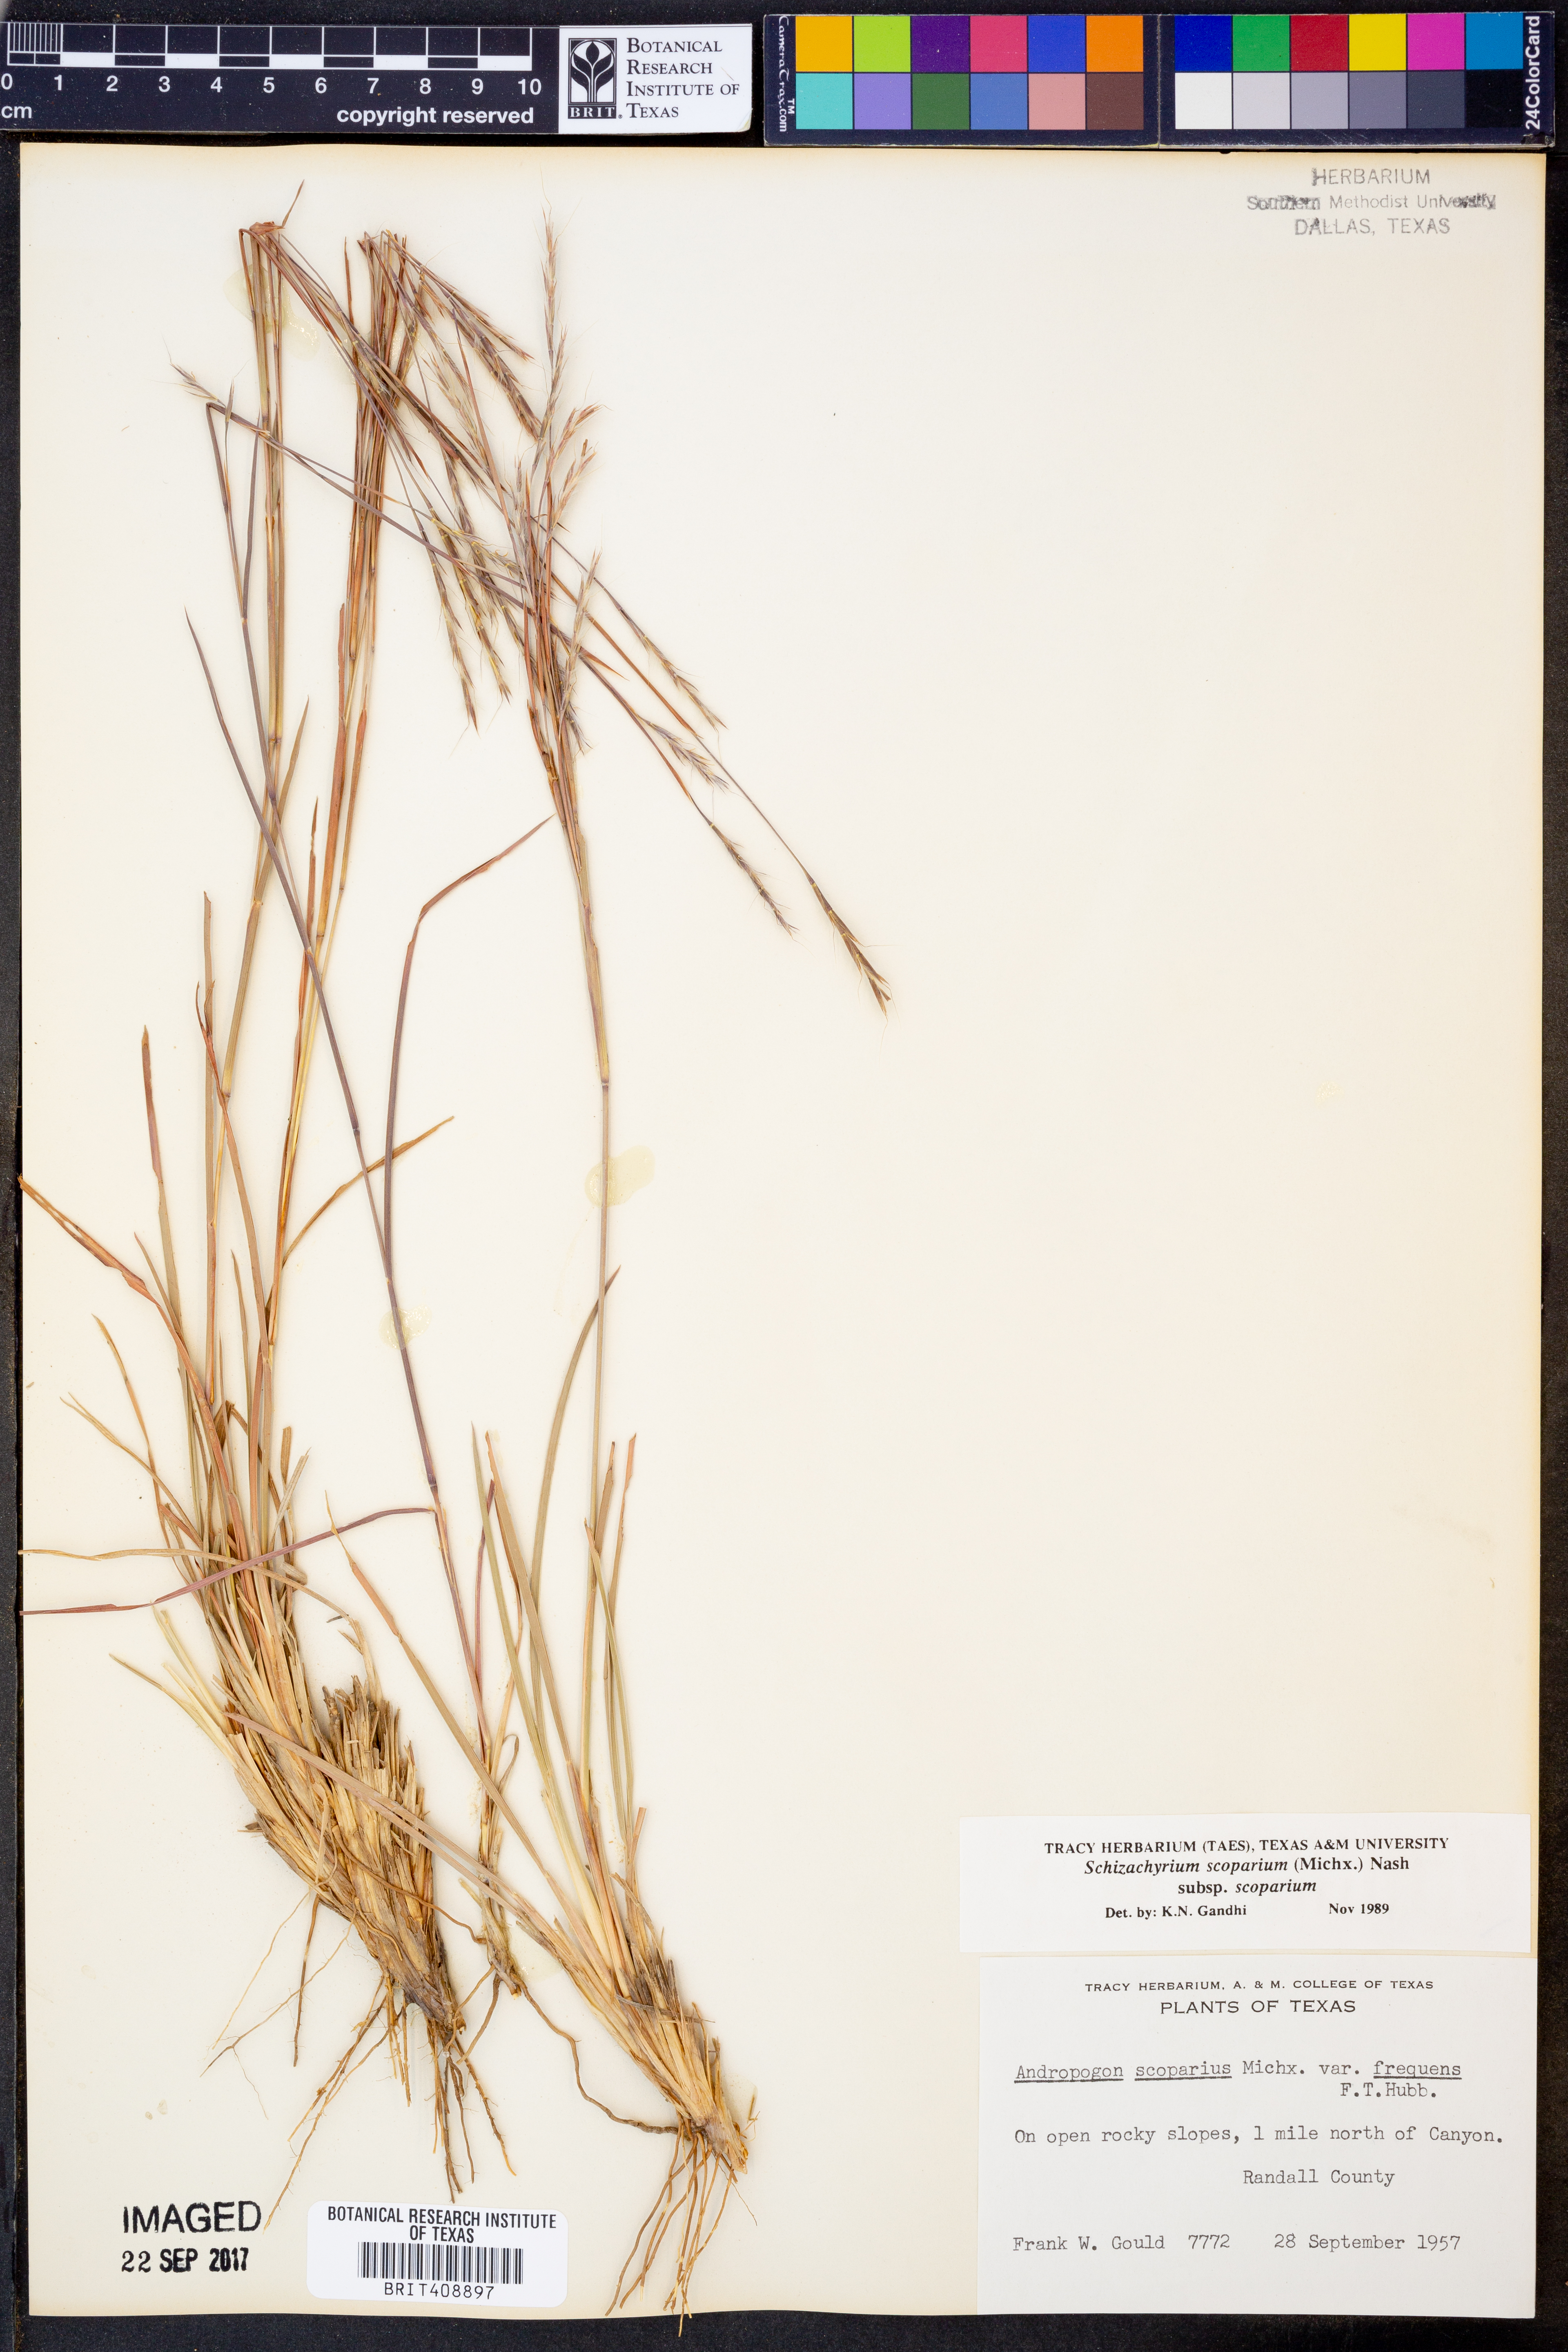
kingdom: Plantae
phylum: Tracheophyta
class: Liliopsida
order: Poales
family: Poaceae
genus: Schizachyrium
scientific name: Schizachyrium scoparium
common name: Little bluestem
